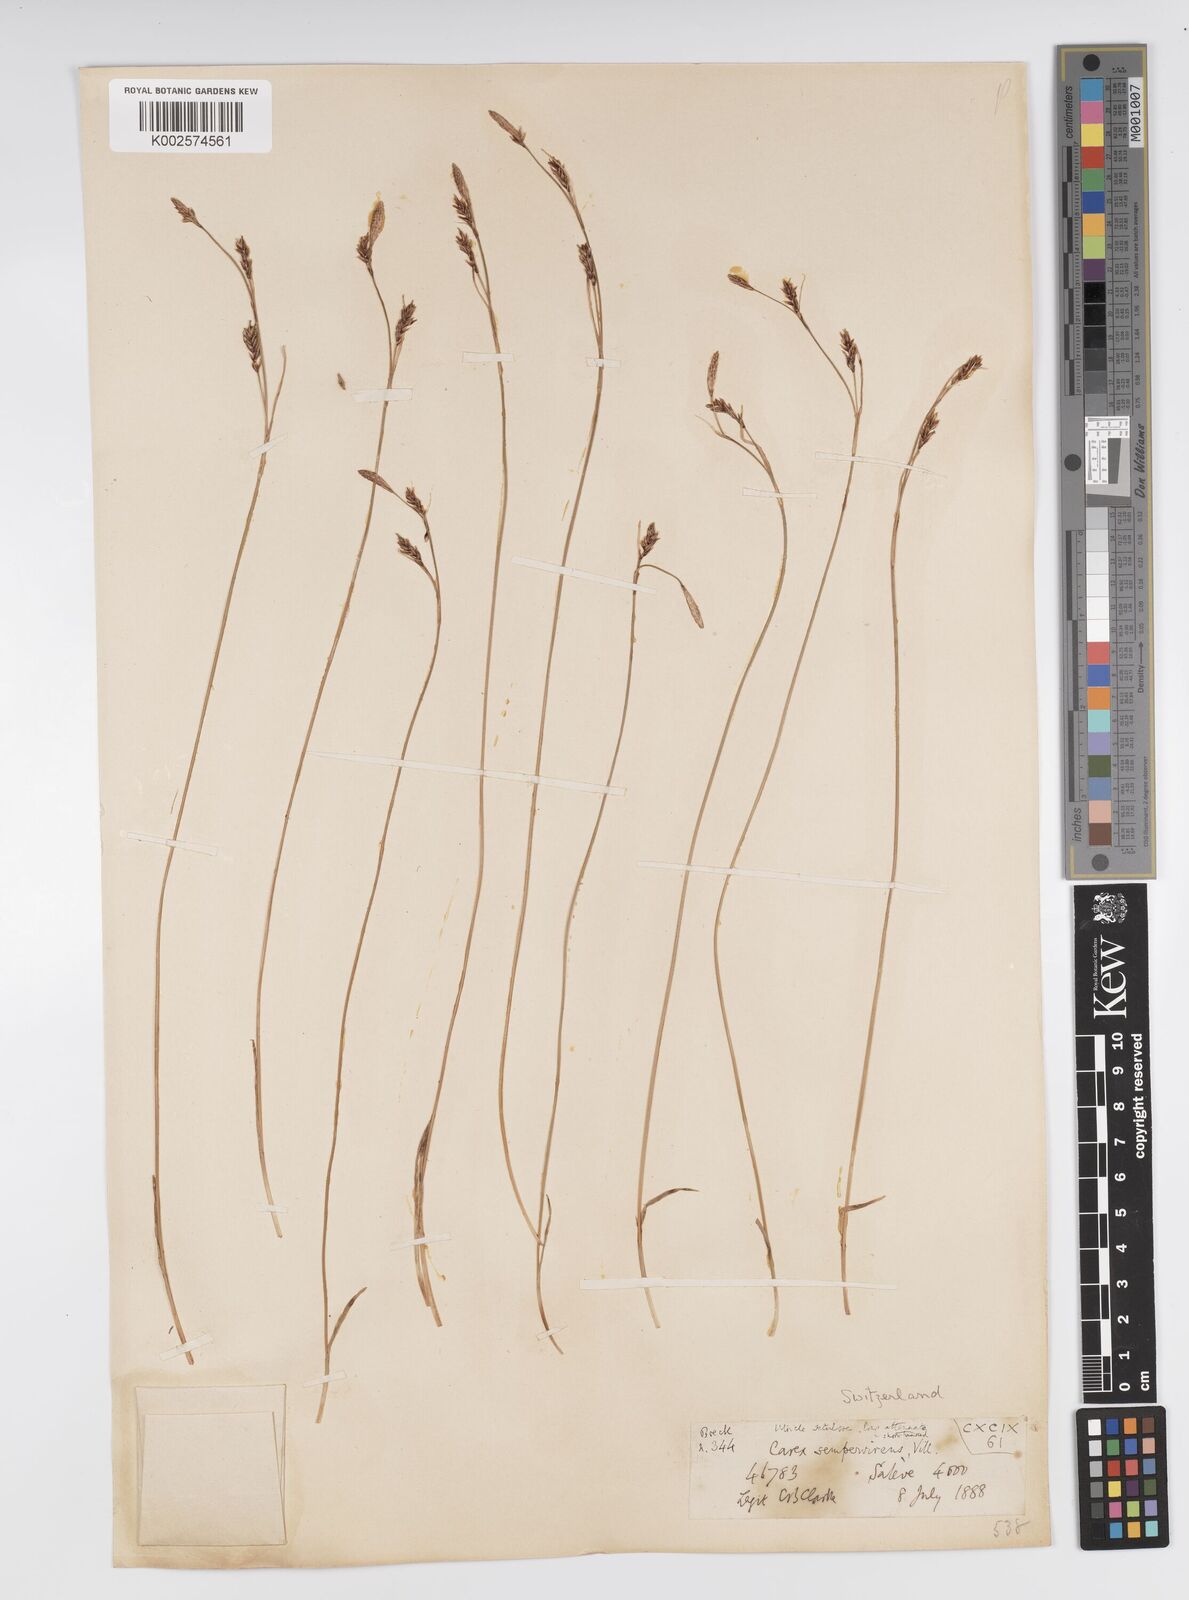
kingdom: Plantae
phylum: Tracheophyta
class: Liliopsida
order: Poales
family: Cyperaceae
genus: Carex
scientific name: Carex sempervirens
